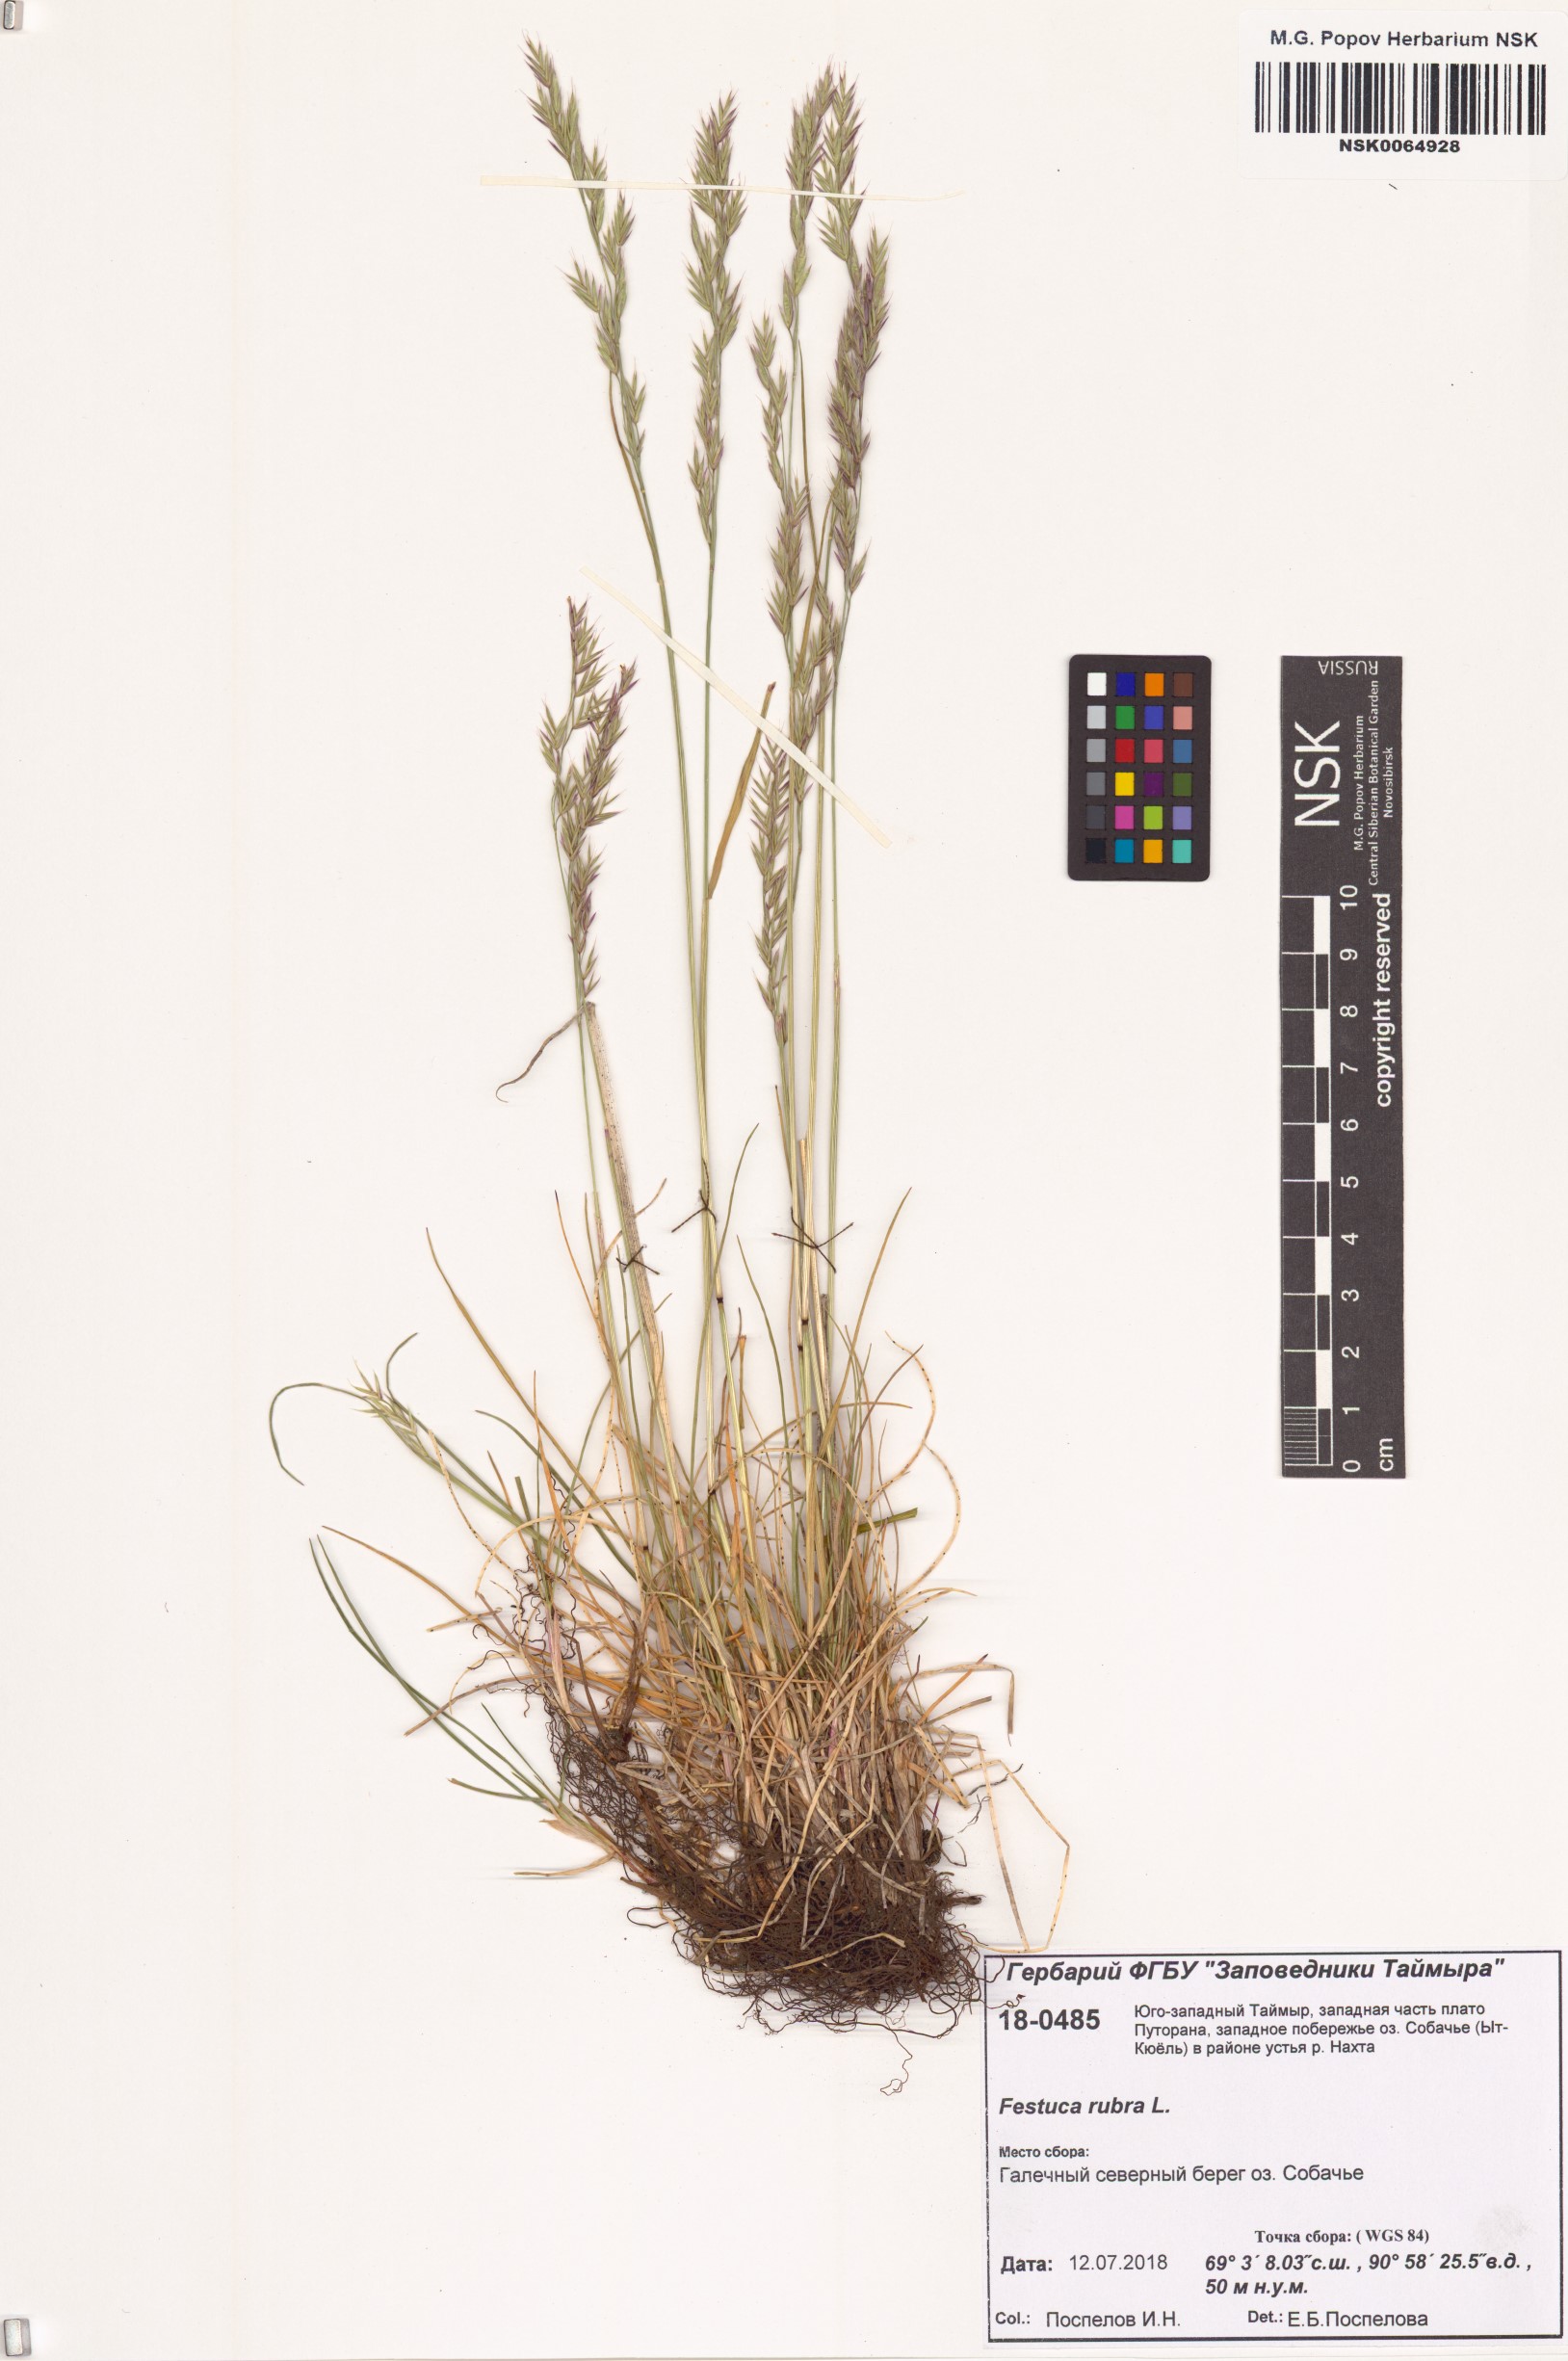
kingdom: Plantae
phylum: Tracheophyta
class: Liliopsida
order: Poales
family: Poaceae
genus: Festuca
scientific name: Festuca rubra
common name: Red fescue
